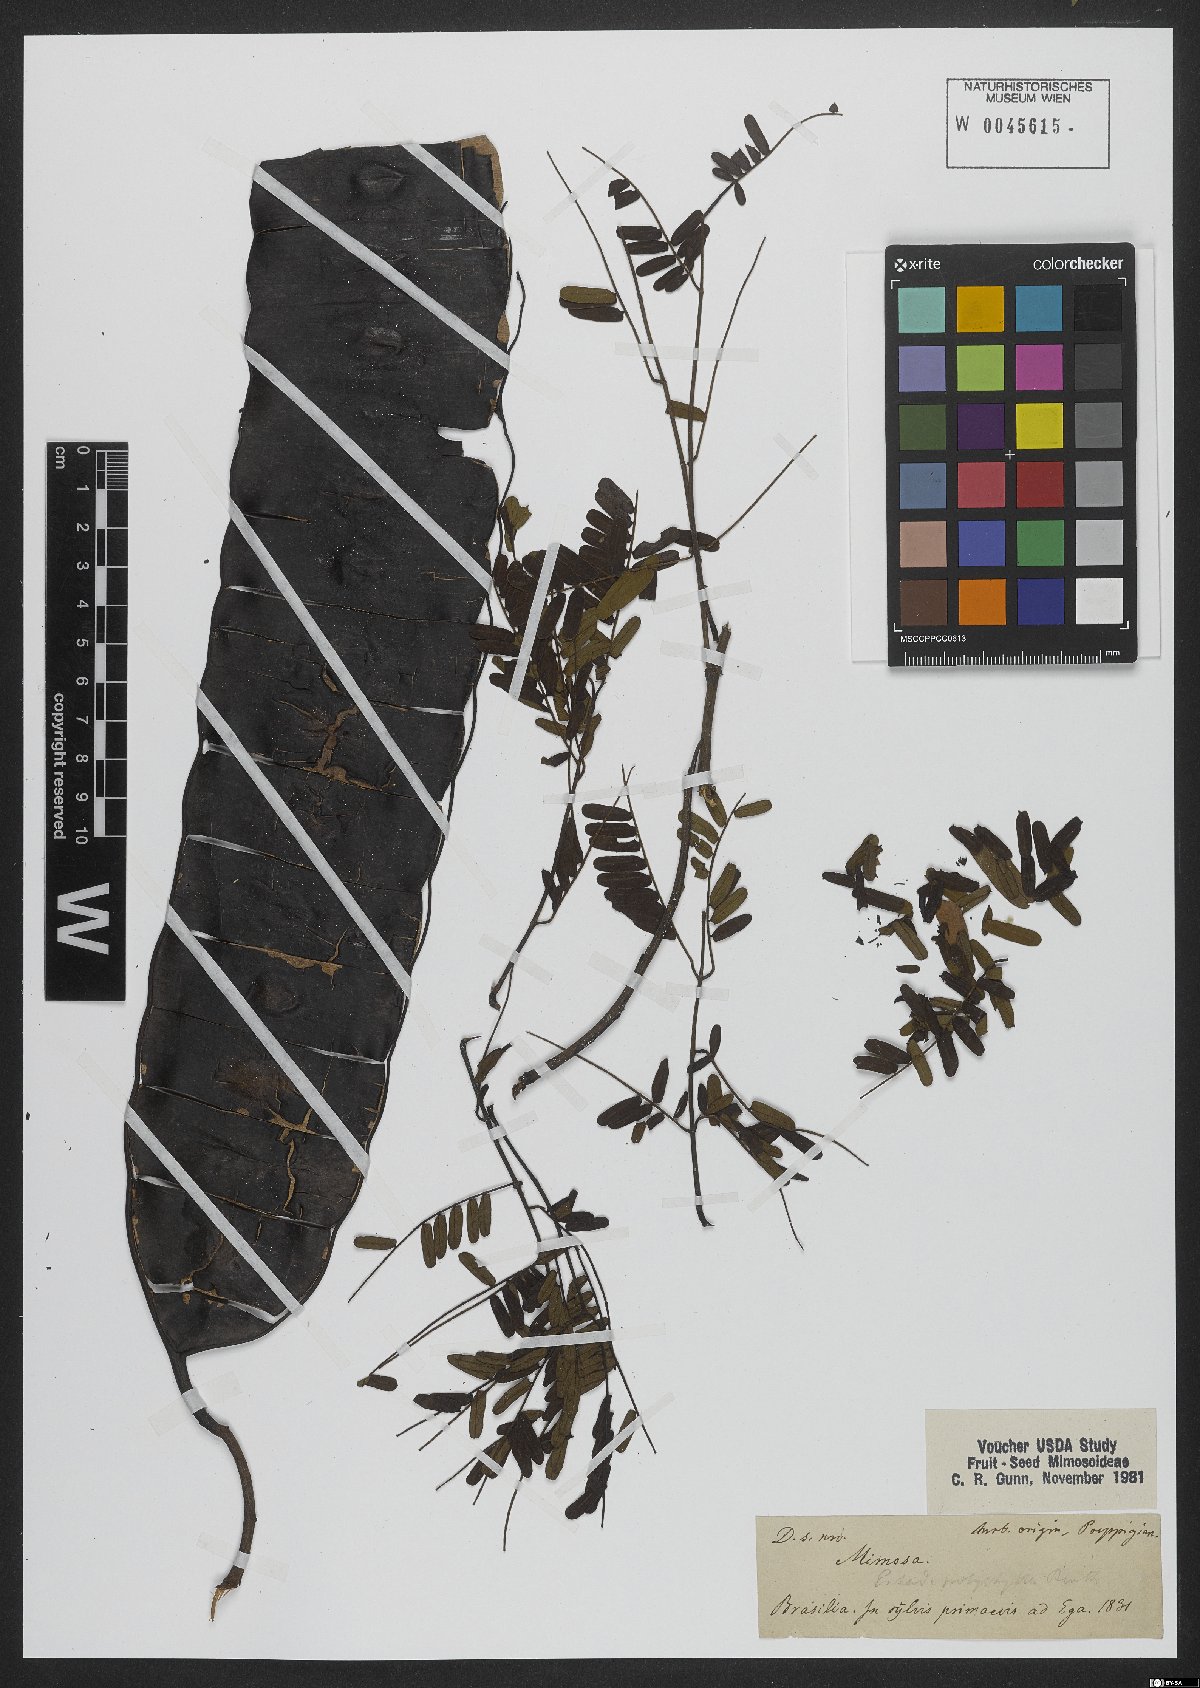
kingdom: Plantae
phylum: Tracheophyta
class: Magnoliopsida
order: Fabales
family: Fabaceae
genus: Entada
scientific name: Entada polyphylla
